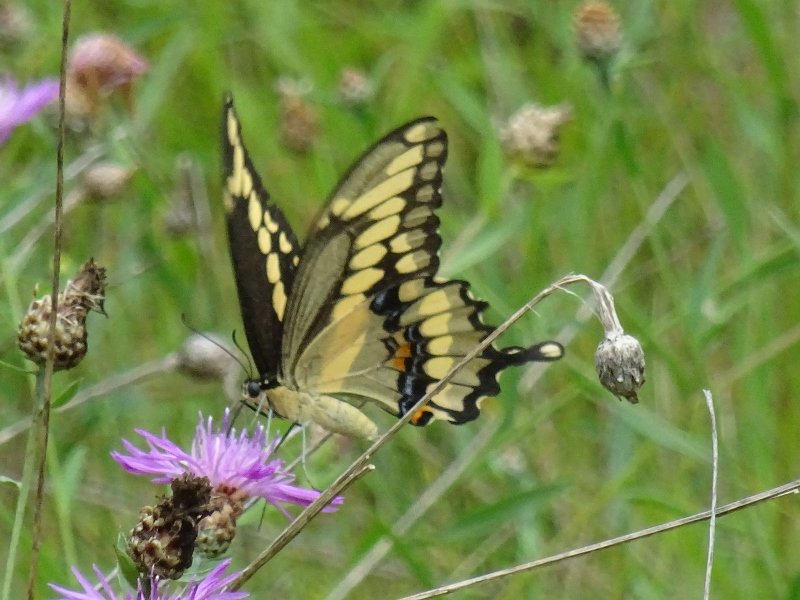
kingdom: Animalia
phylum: Arthropoda
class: Insecta
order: Lepidoptera
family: Papilionidae
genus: Papilio
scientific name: Papilio cresphontes
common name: Eastern Giant Swallowtail
